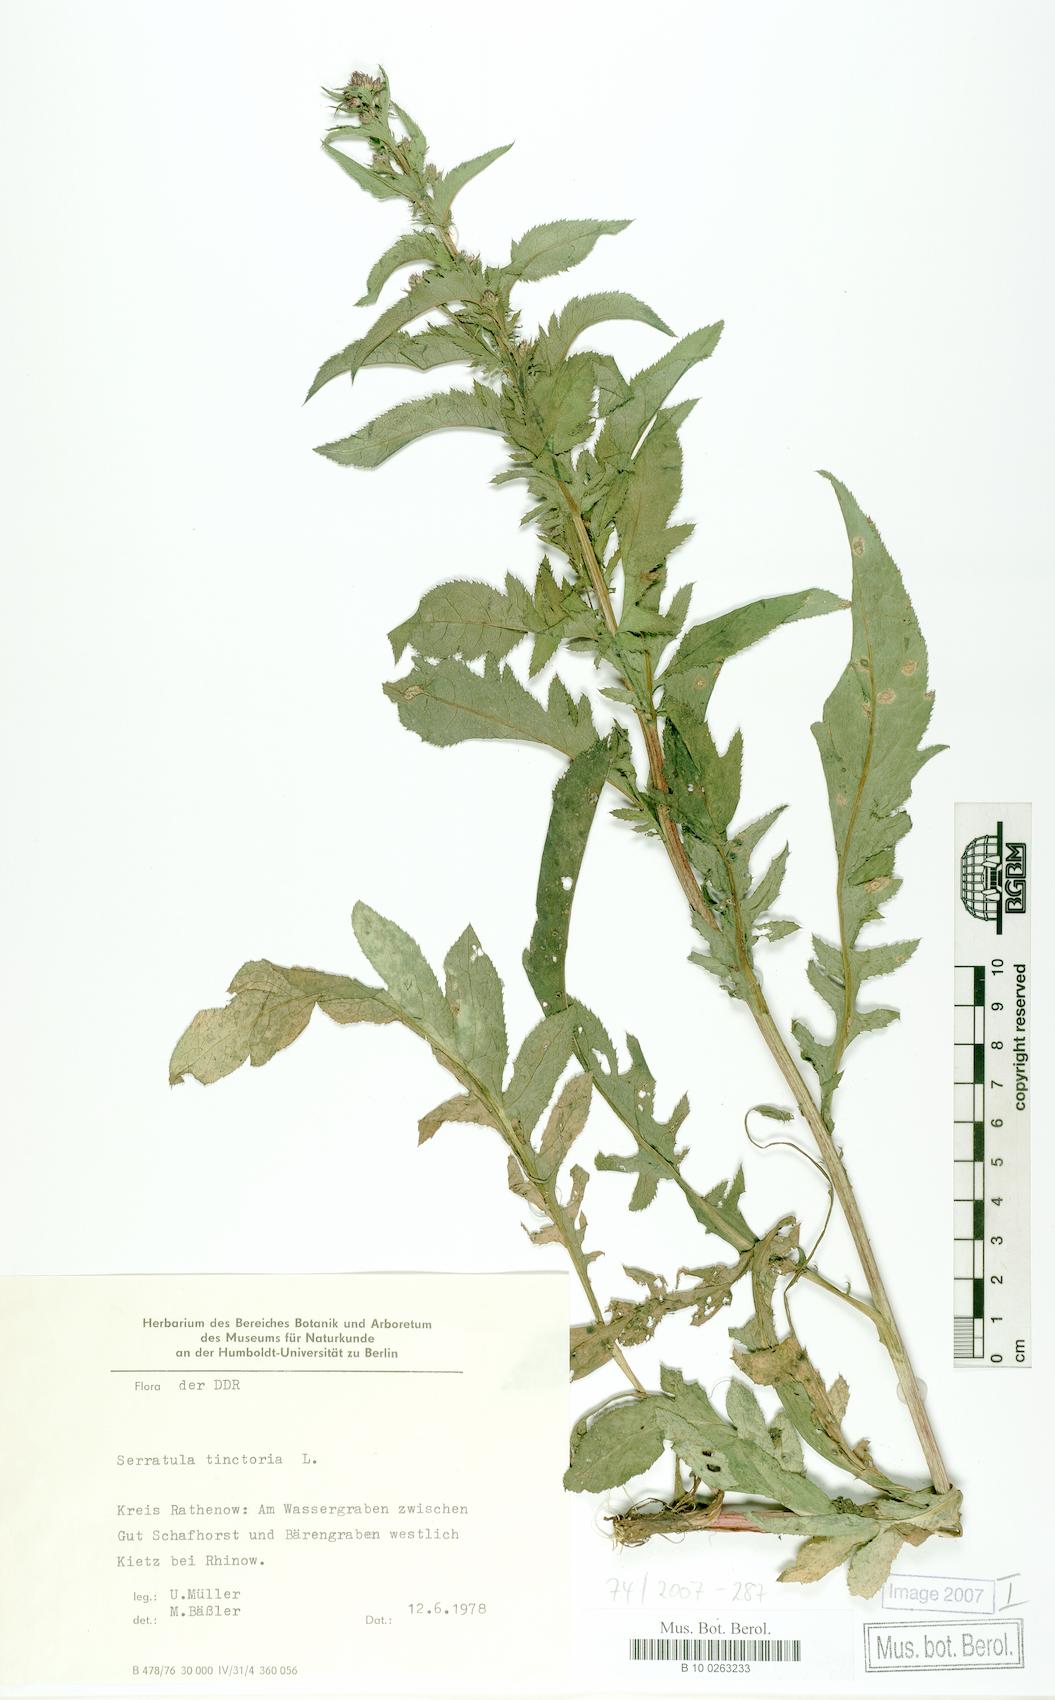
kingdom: Plantae
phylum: Tracheophyta
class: Magnoliopsida
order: Asterales
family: Asteraceae
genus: Serratula
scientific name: Serratula tinctoria
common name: Saw-wort
